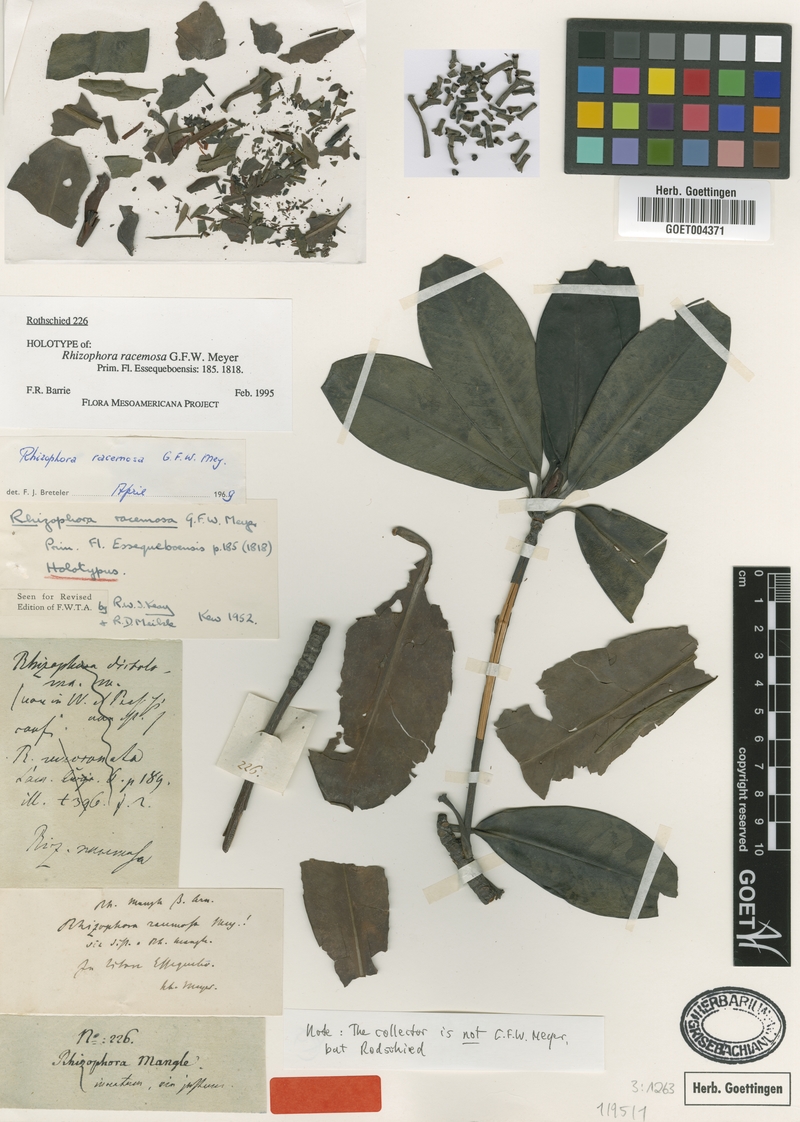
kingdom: Plantae
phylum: Tracheophyta
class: Magnoliopsida
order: Malpighiales
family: Rhizophoraceae
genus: Rhizophora
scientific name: Rhizophora mangle
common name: Red mangrove
